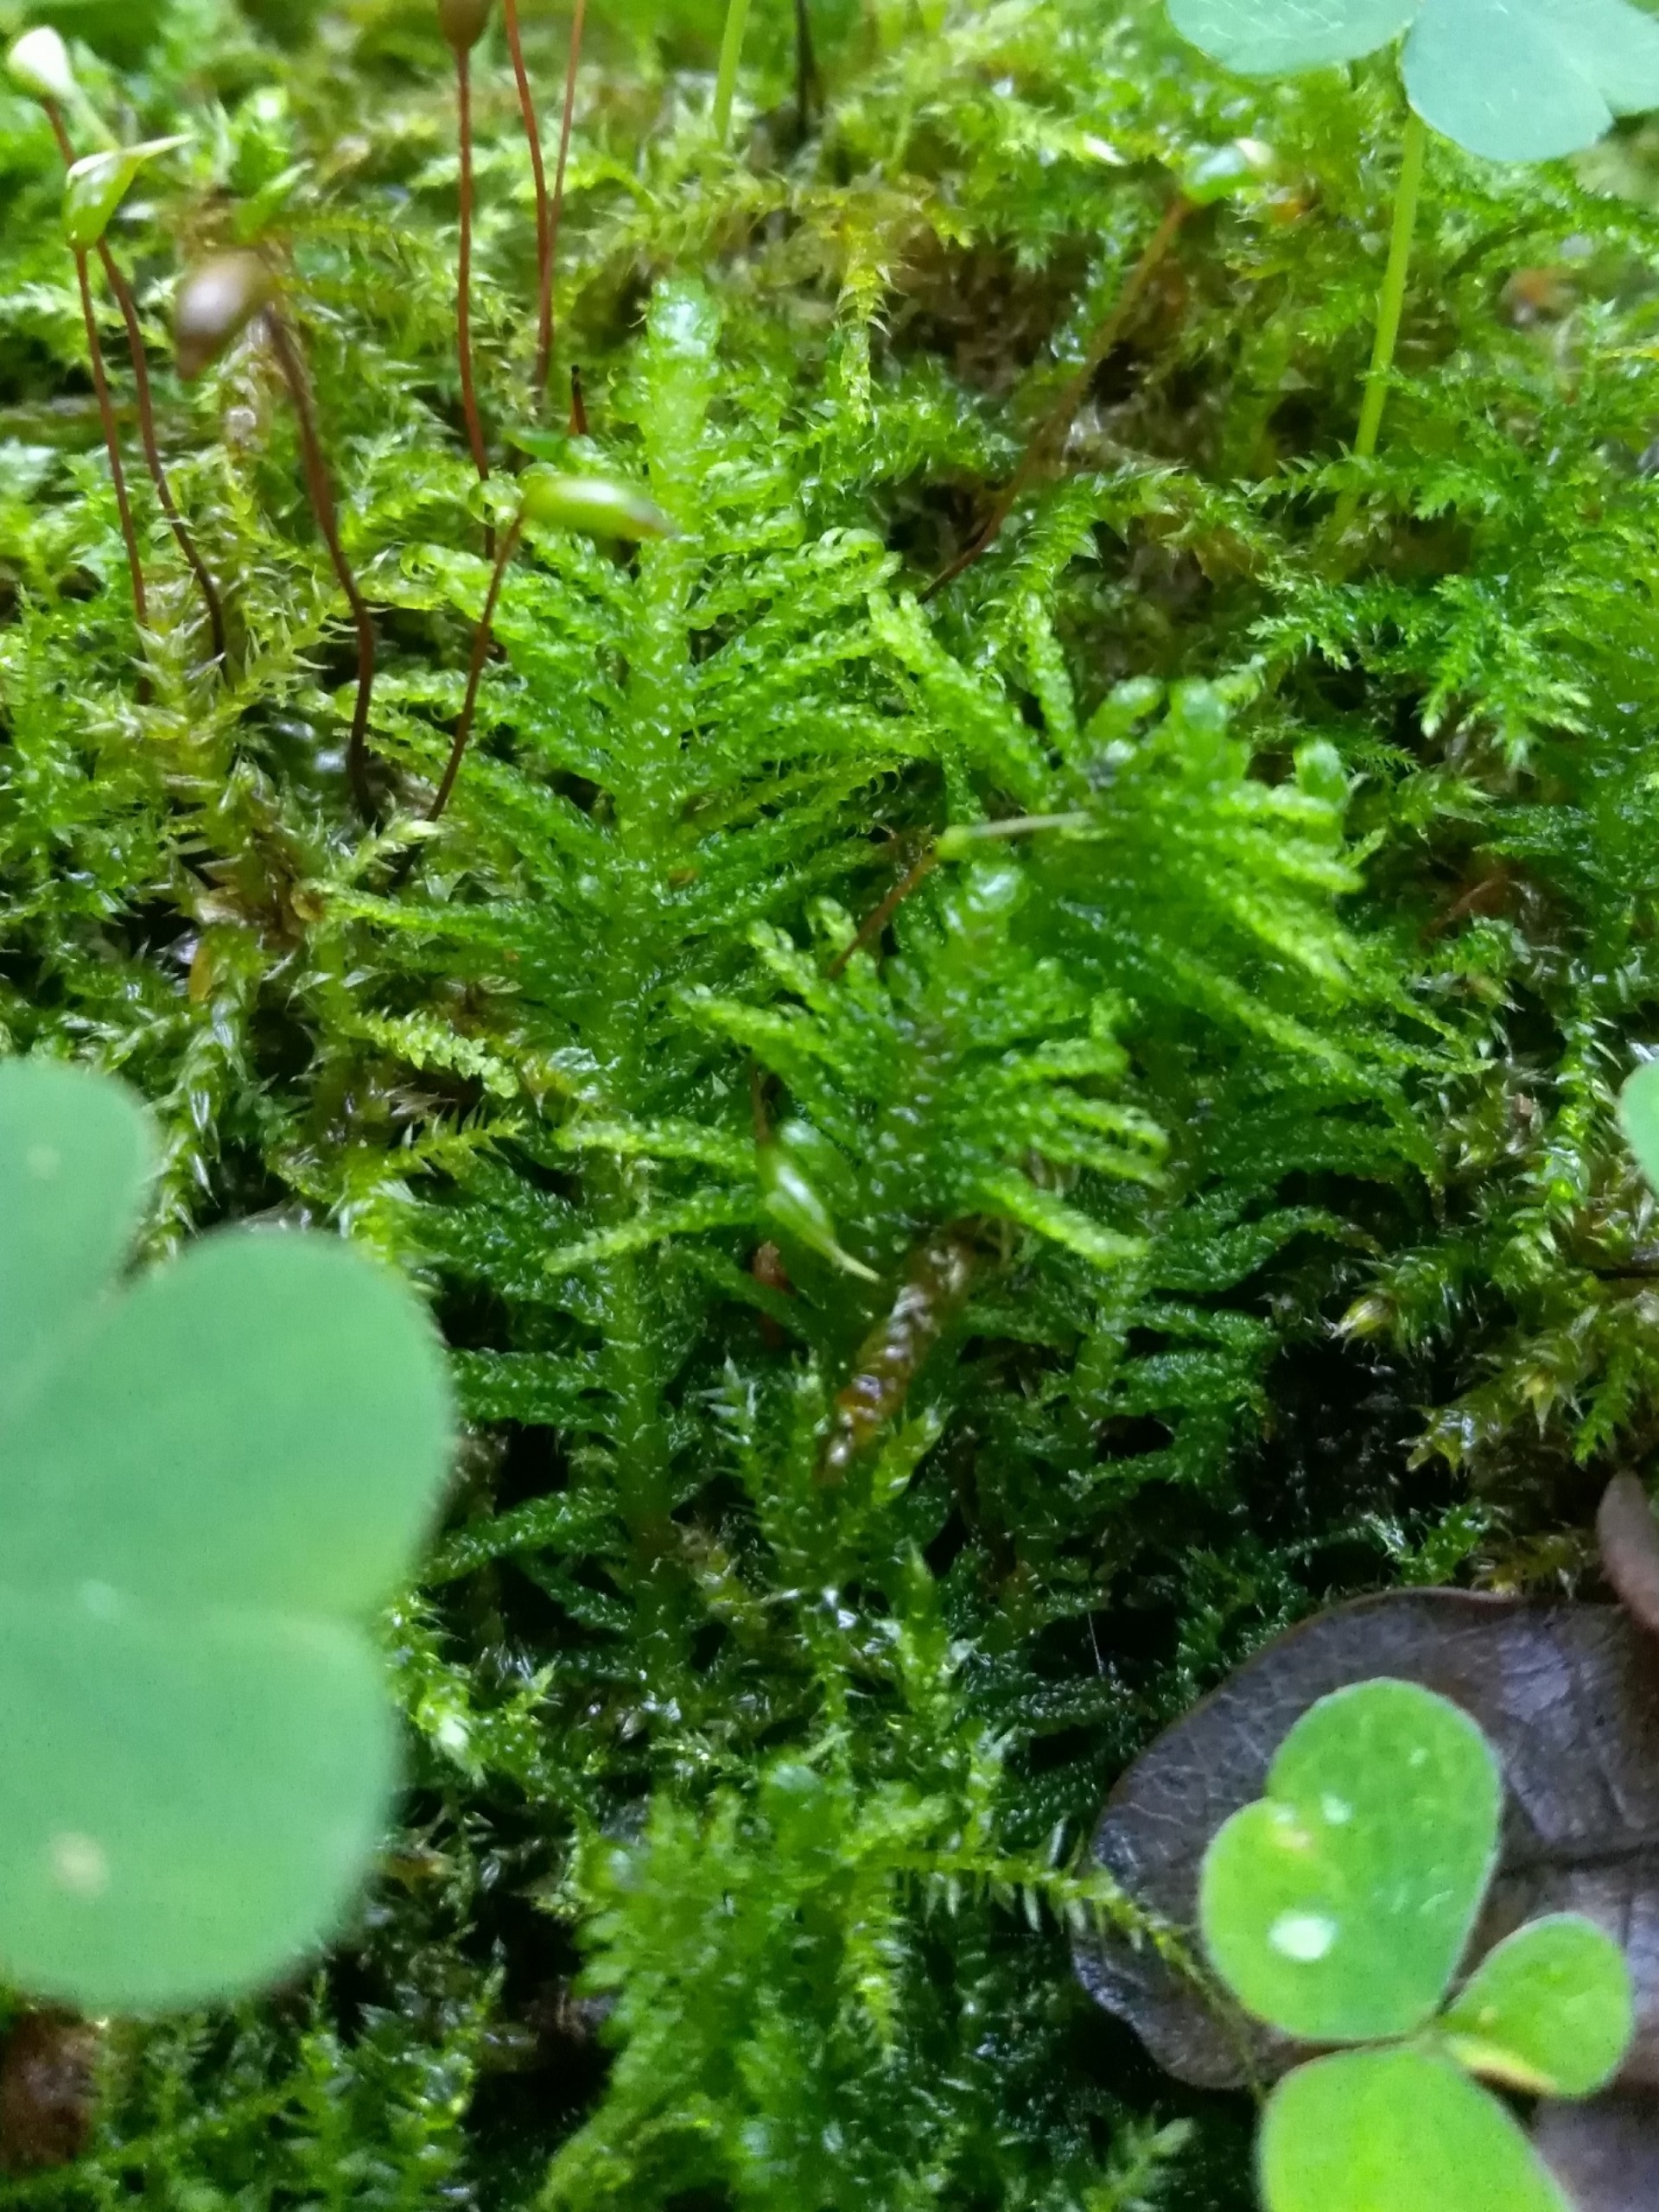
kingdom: Plantae
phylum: Bryophyta
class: Bryopsida
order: Hypnales
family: Pylaisiaceae
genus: Ptilium
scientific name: Ptilium crista-castrensis
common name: Fjer-kammos
